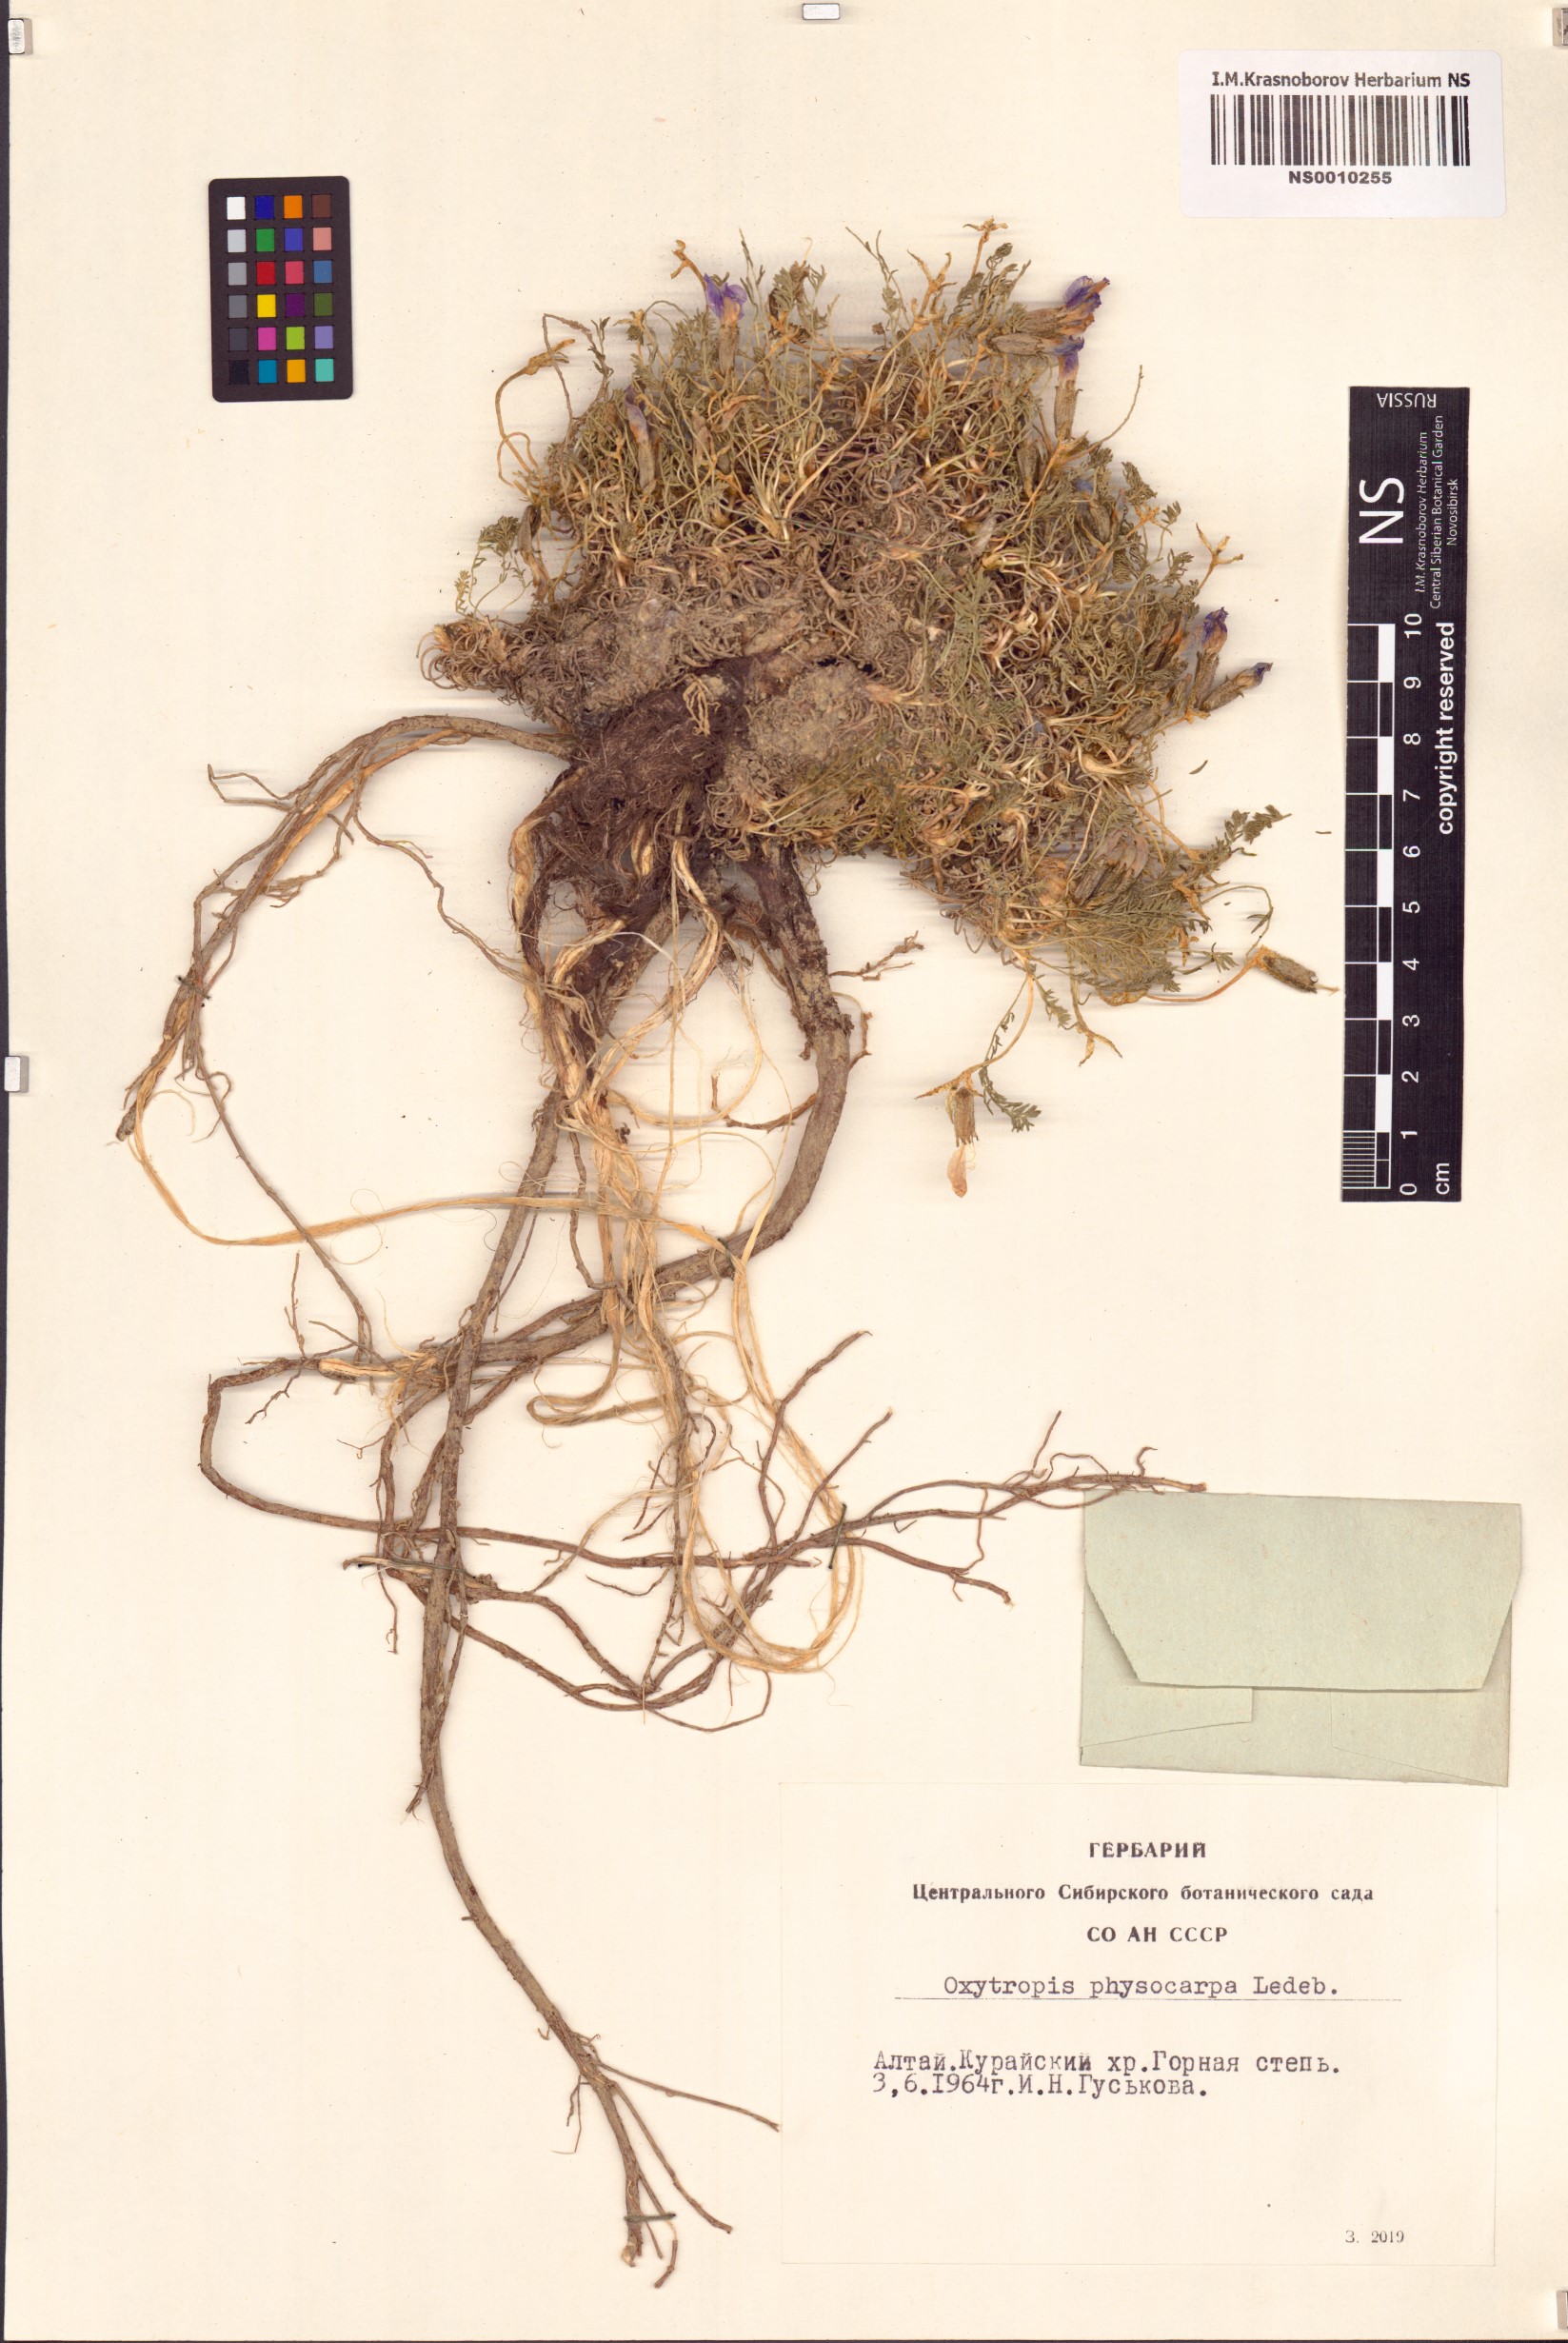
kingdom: Plantae
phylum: Tracheophyta
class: Magnoliopsida
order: Fabales
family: Fabaceae
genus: Oxytropis
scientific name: Oxytropis physocarpa
